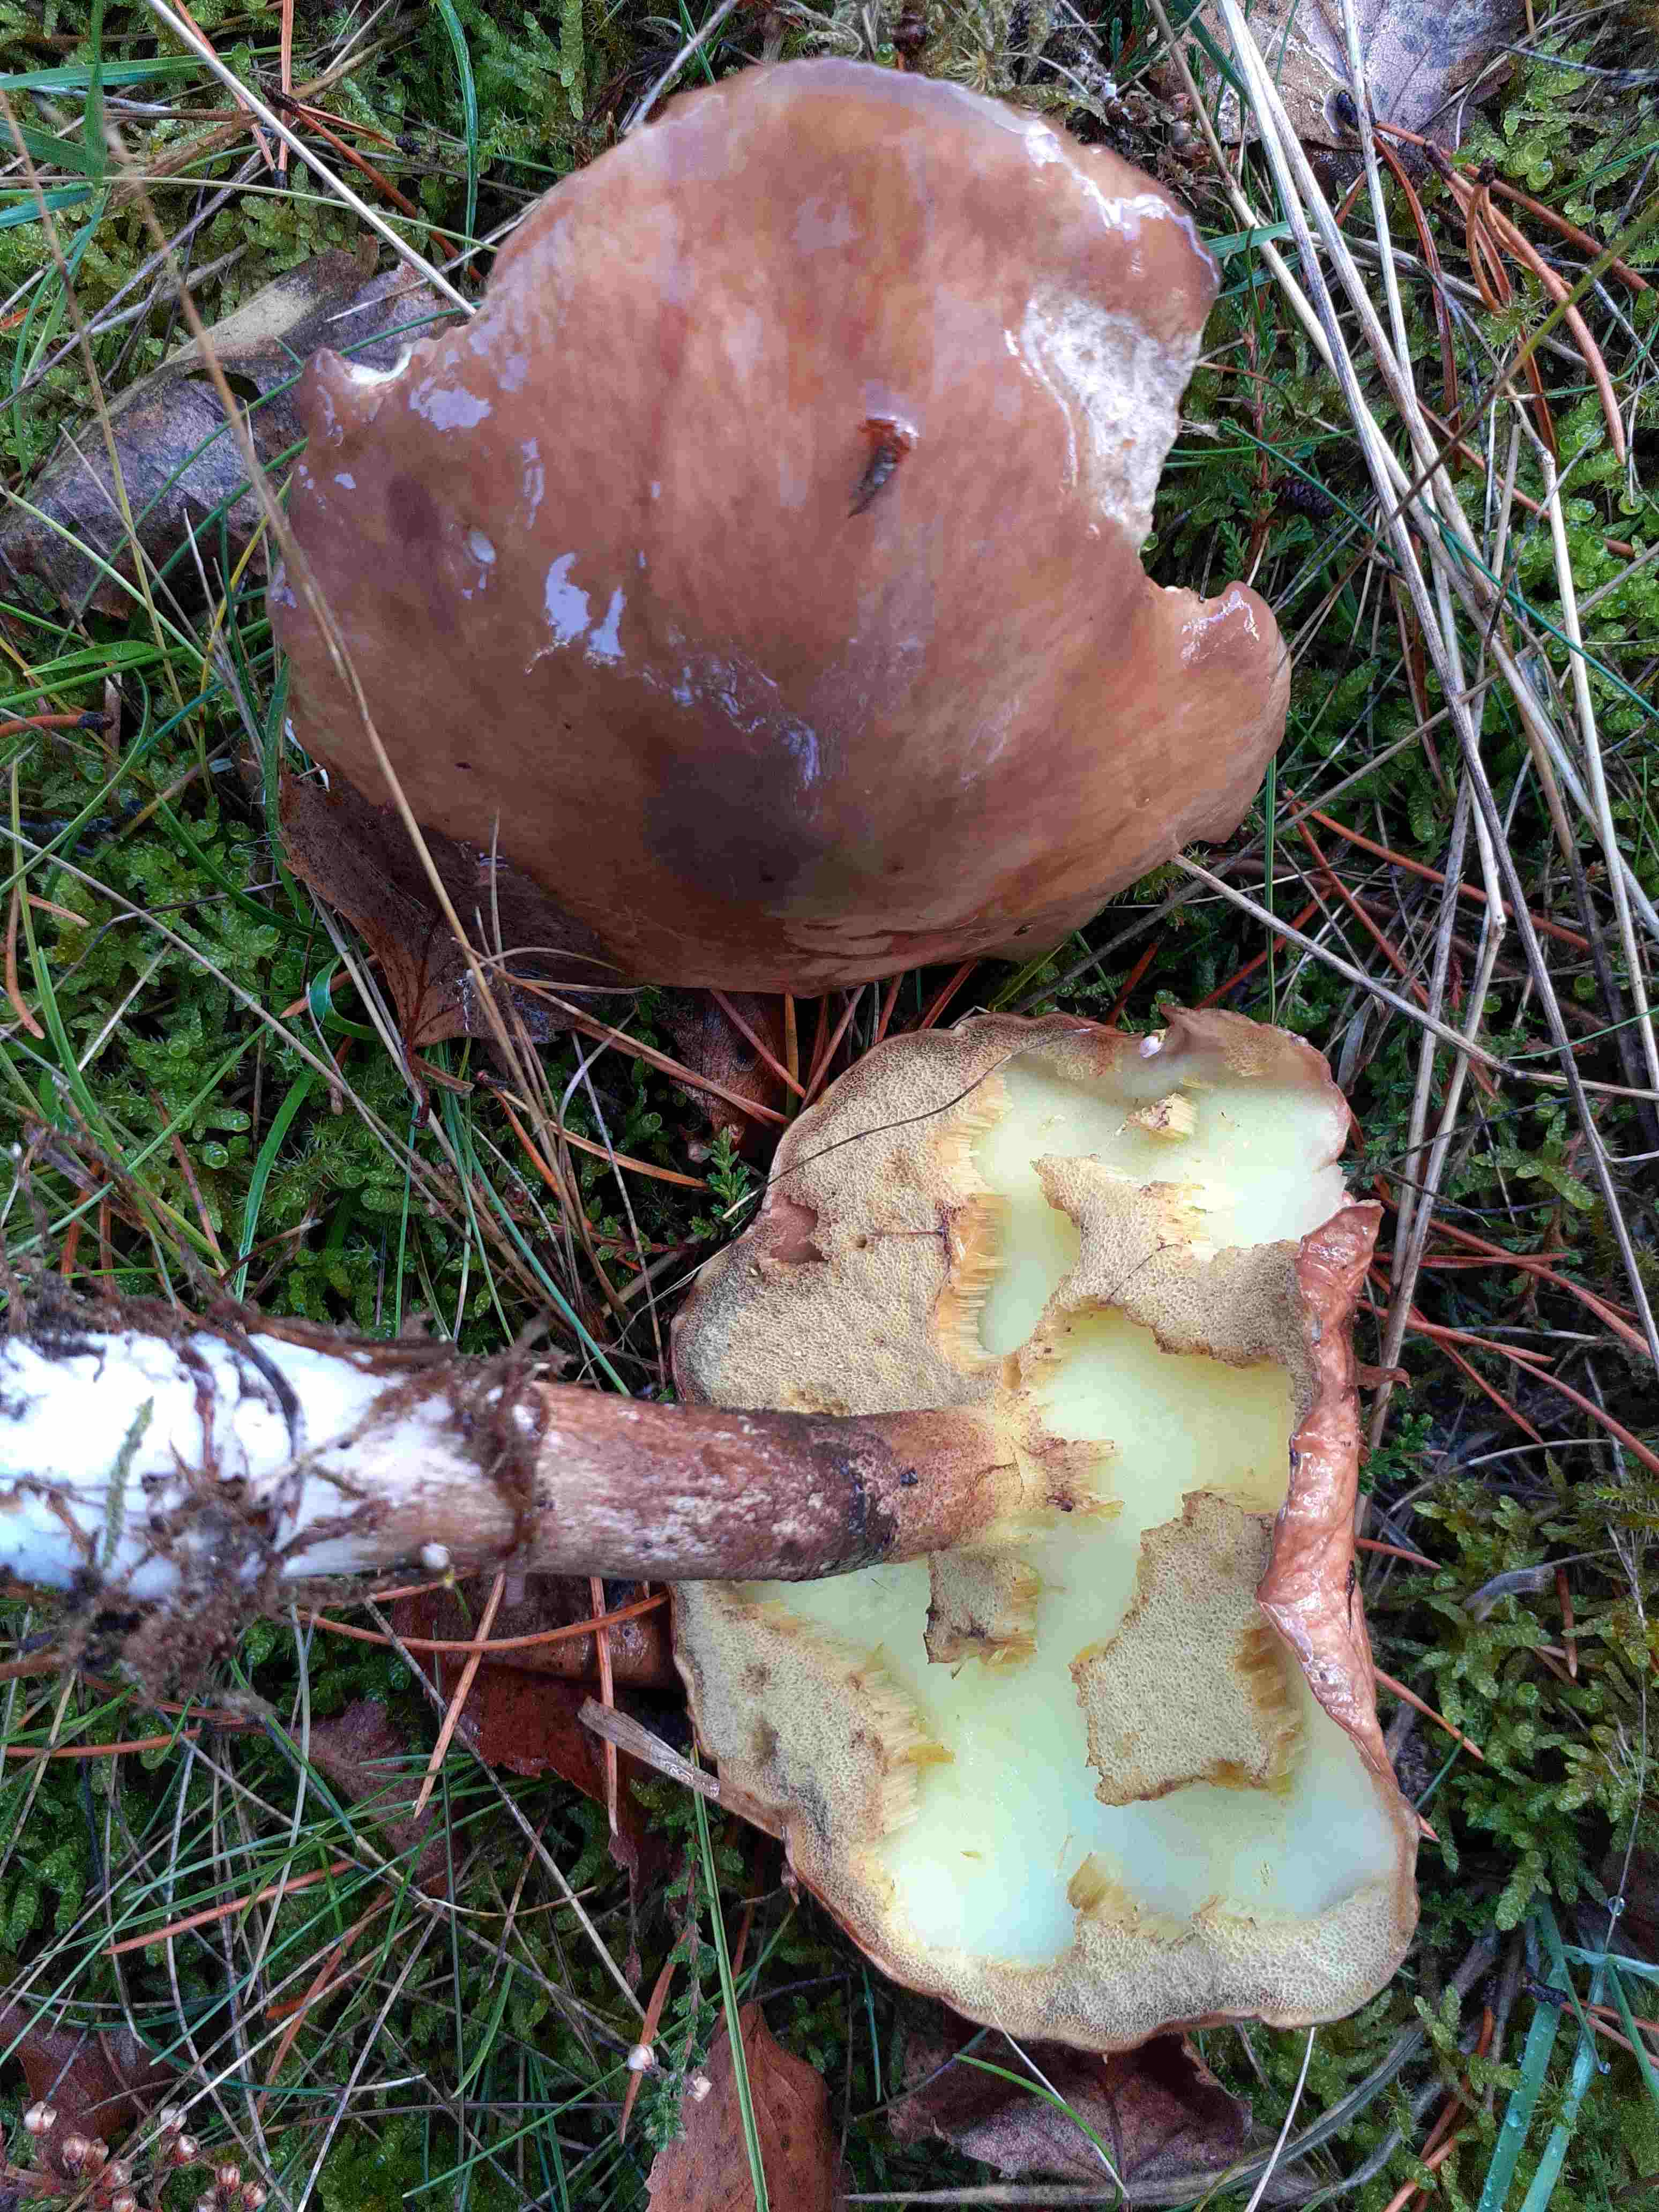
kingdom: Fungi
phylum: Basidiomycota
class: Agaricomycetes
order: Boletales
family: Suillaceae
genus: Suillus
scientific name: Suillus luteus
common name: brungul slimrørhat
